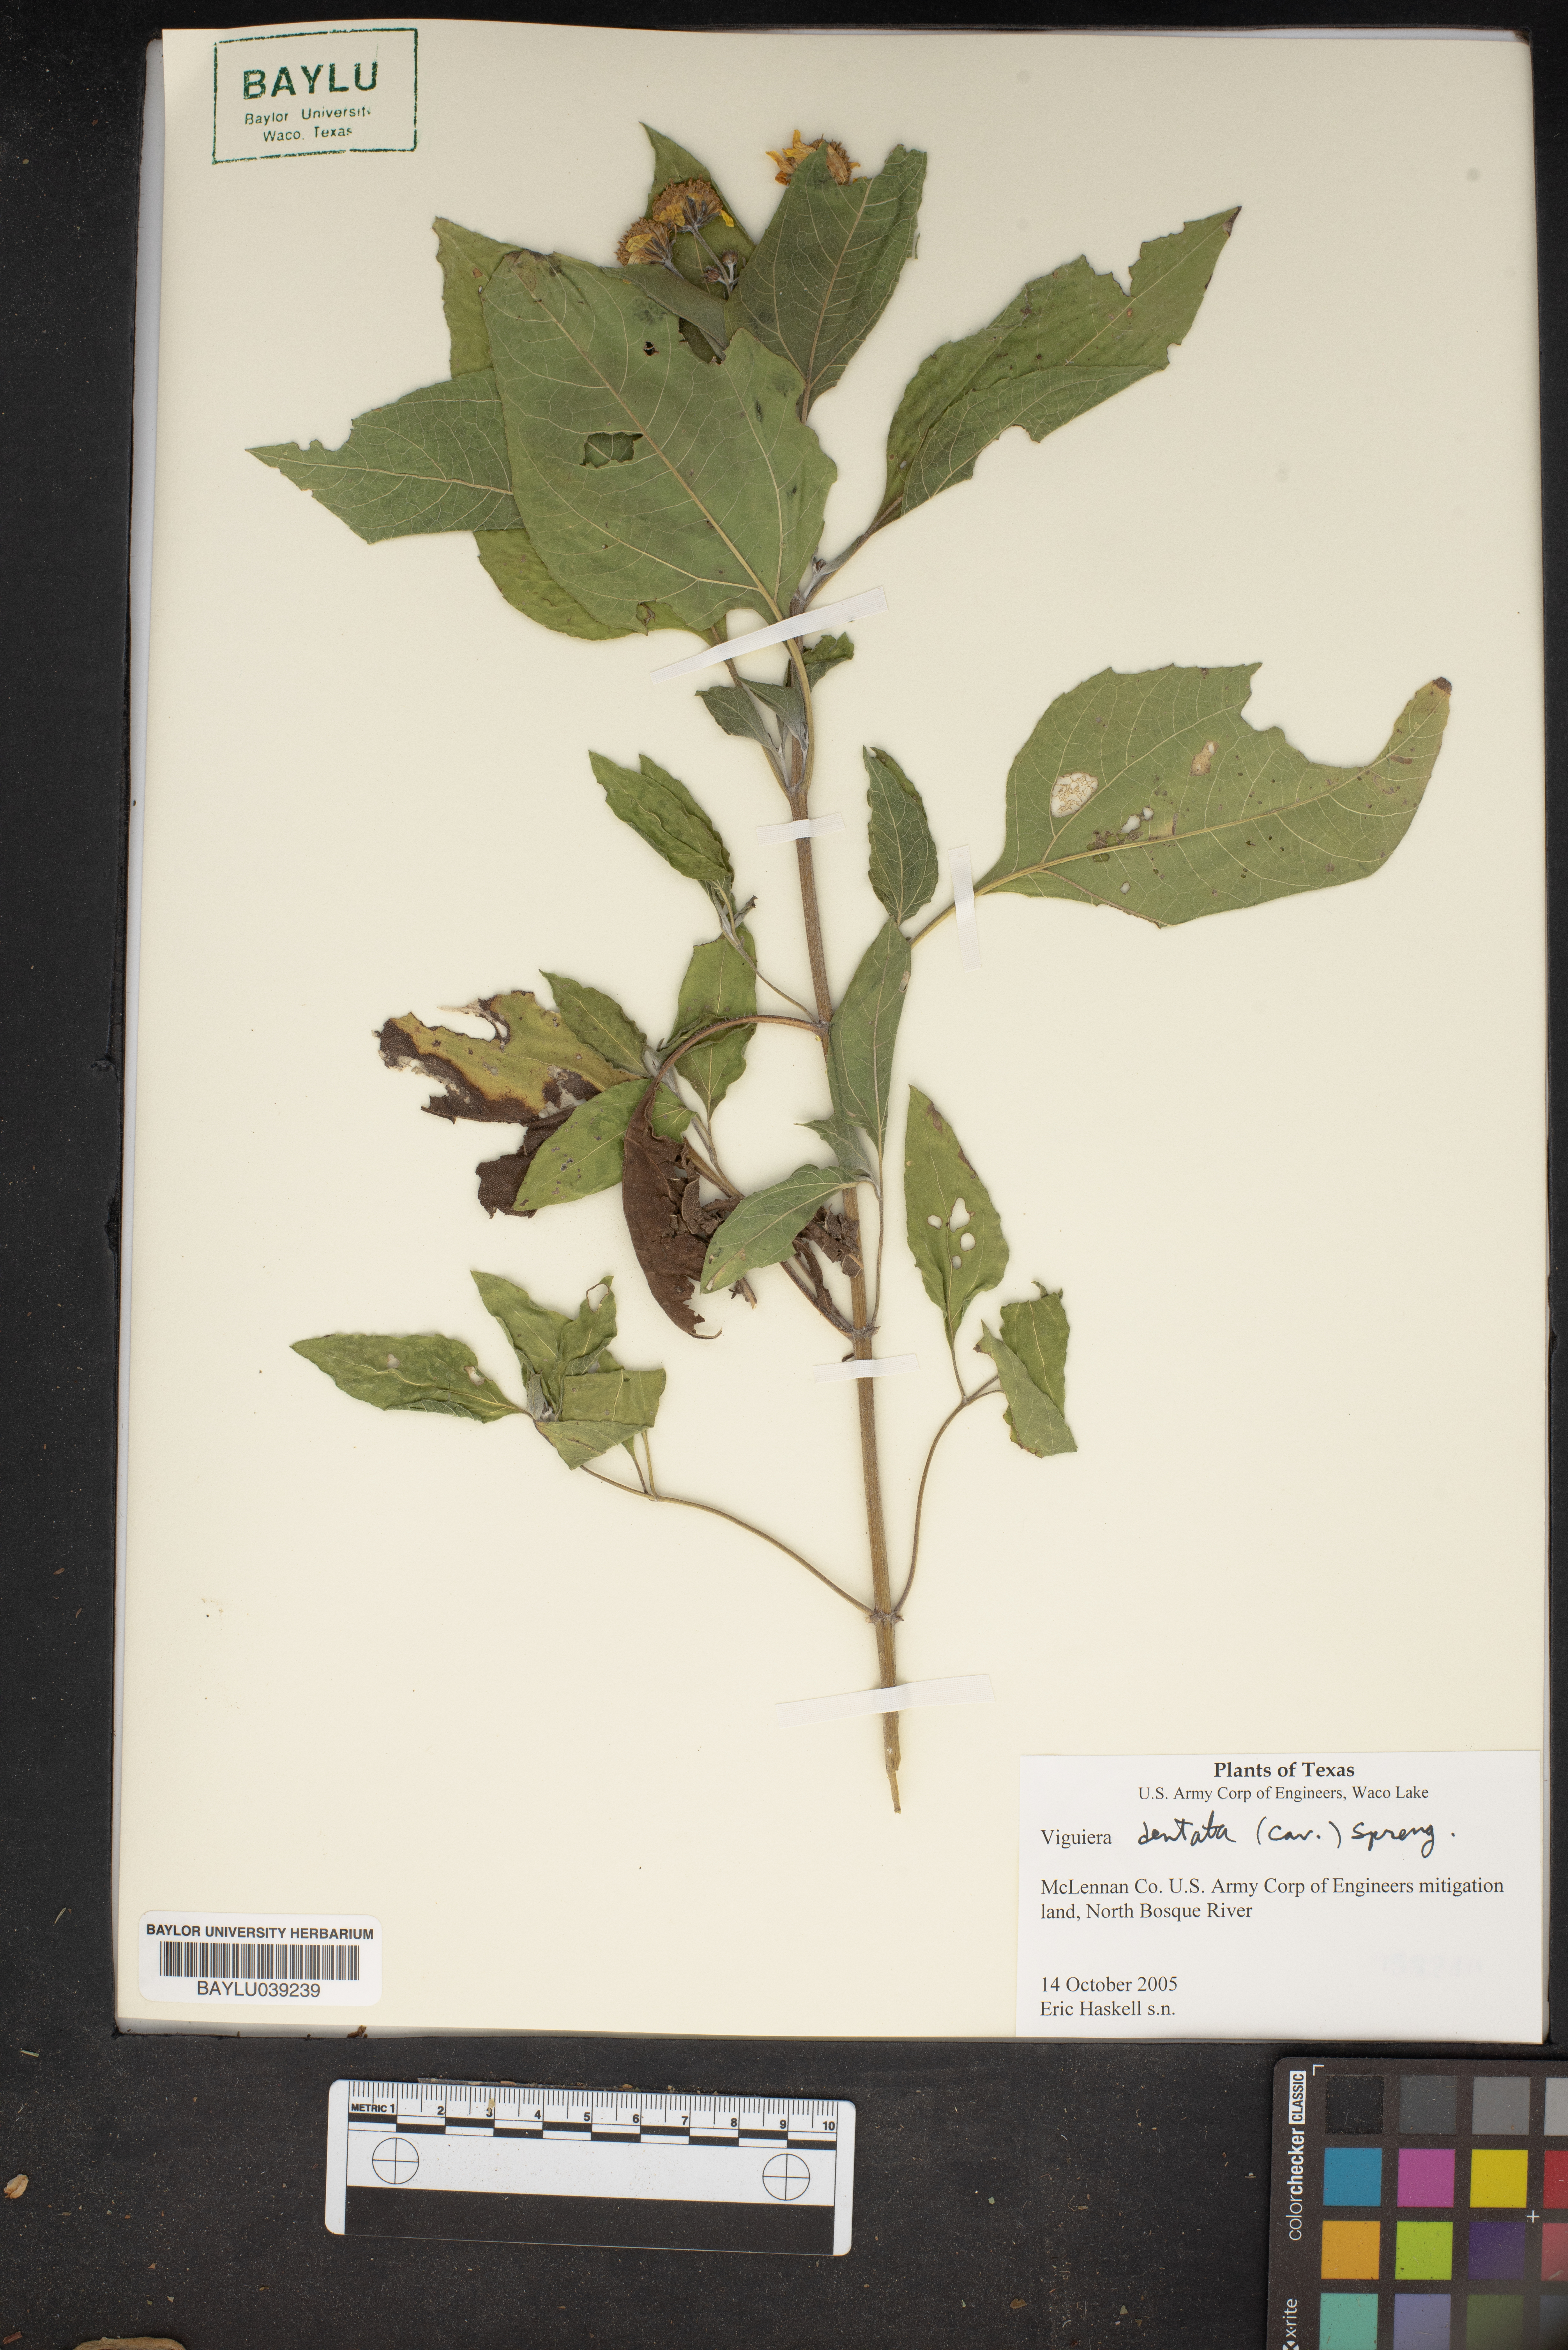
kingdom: Plantae
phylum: Tracheophyta
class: Magnoliopsida
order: Asterales
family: Asteraceae
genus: Viguiera
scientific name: Viguiera dentata
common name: Toothleaf
